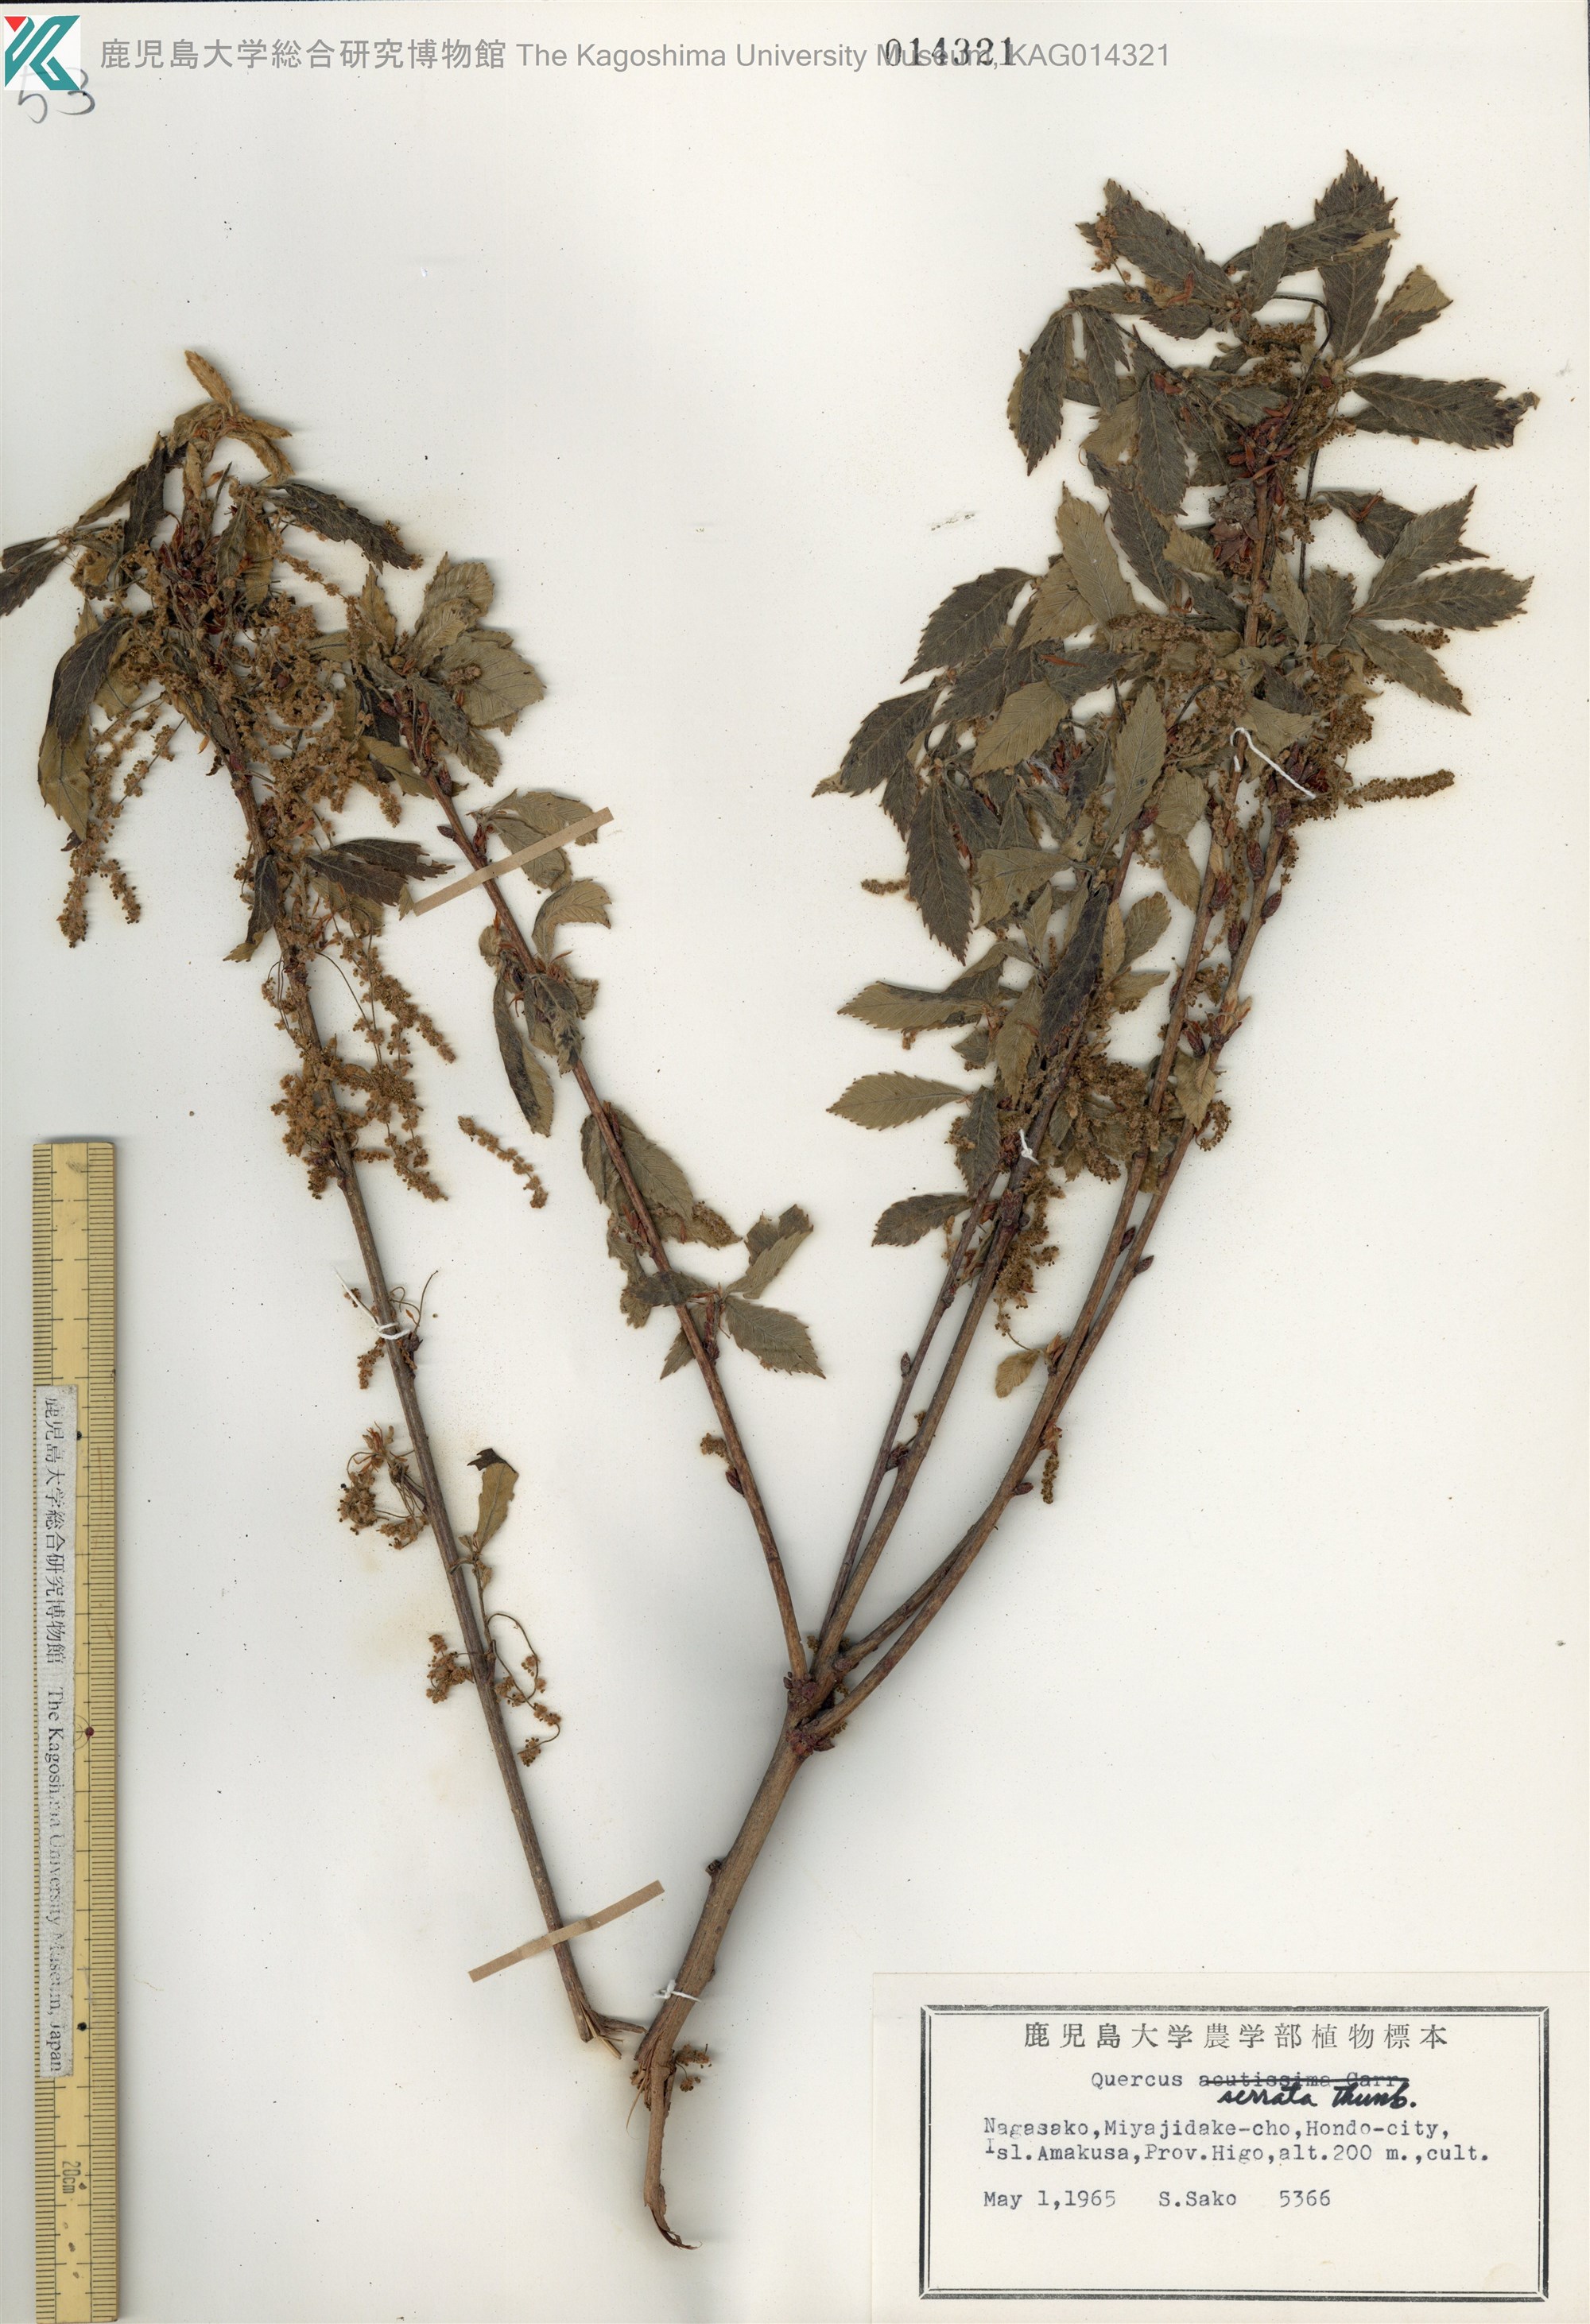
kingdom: Plantae
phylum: Tracheophyta
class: Magnoliopsida
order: Fagales
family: Fagaceae
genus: Quercus
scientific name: Quercus serrata
